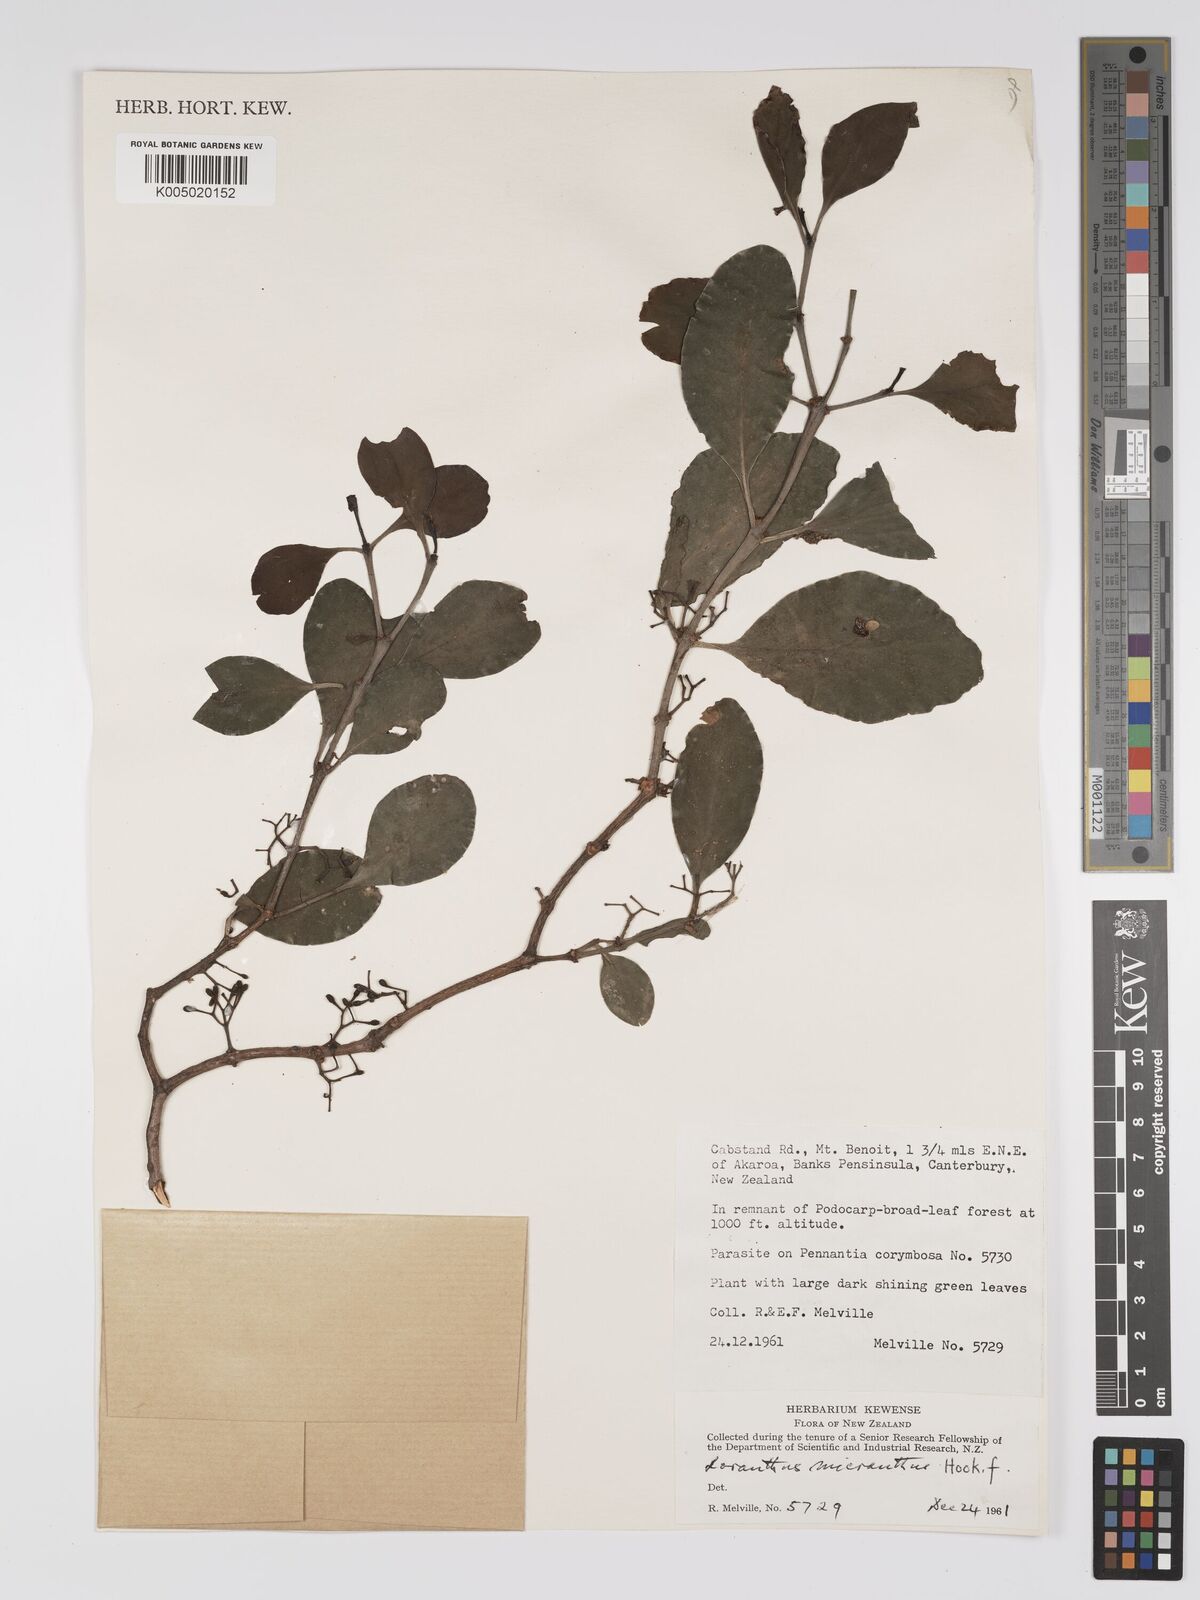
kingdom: Plantae
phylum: Tracheophyta
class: Magnoliopsida
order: Santalales
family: Loranthaceae
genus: Ileostylus
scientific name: Ileostylus micranthus
